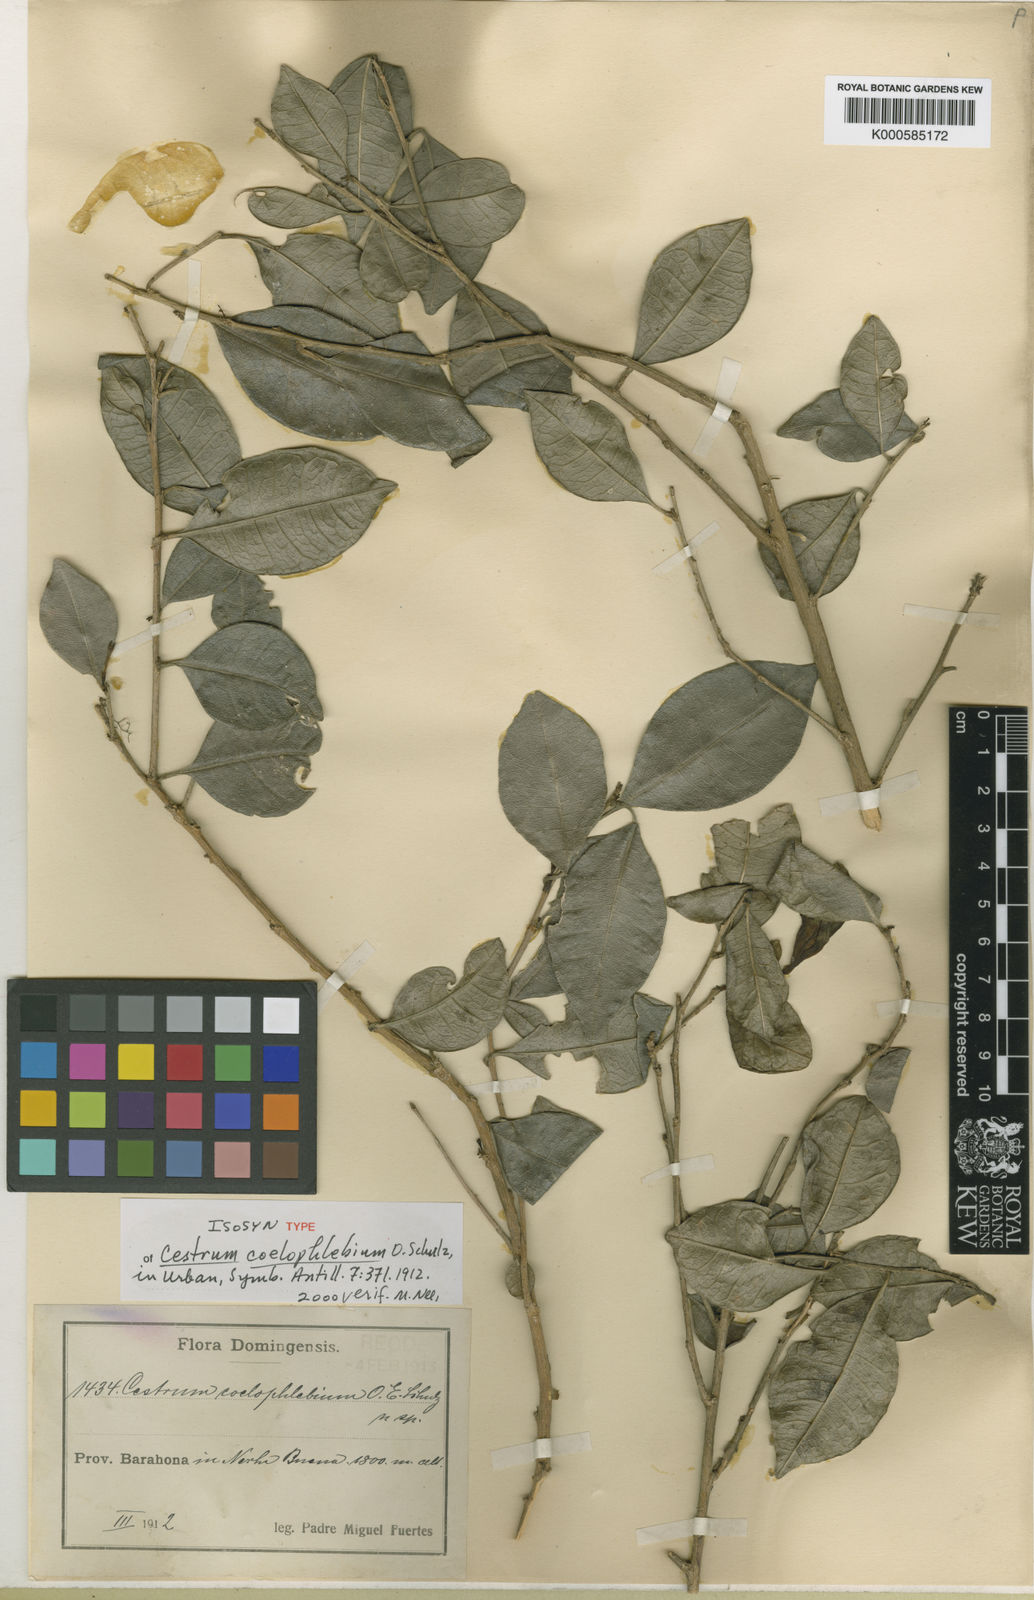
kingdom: Plantae
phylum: Tracheophyta
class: Magnoliopsida
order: Solanales
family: Solanaceae
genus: Cestrum
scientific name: Cestrum coelophlebium
